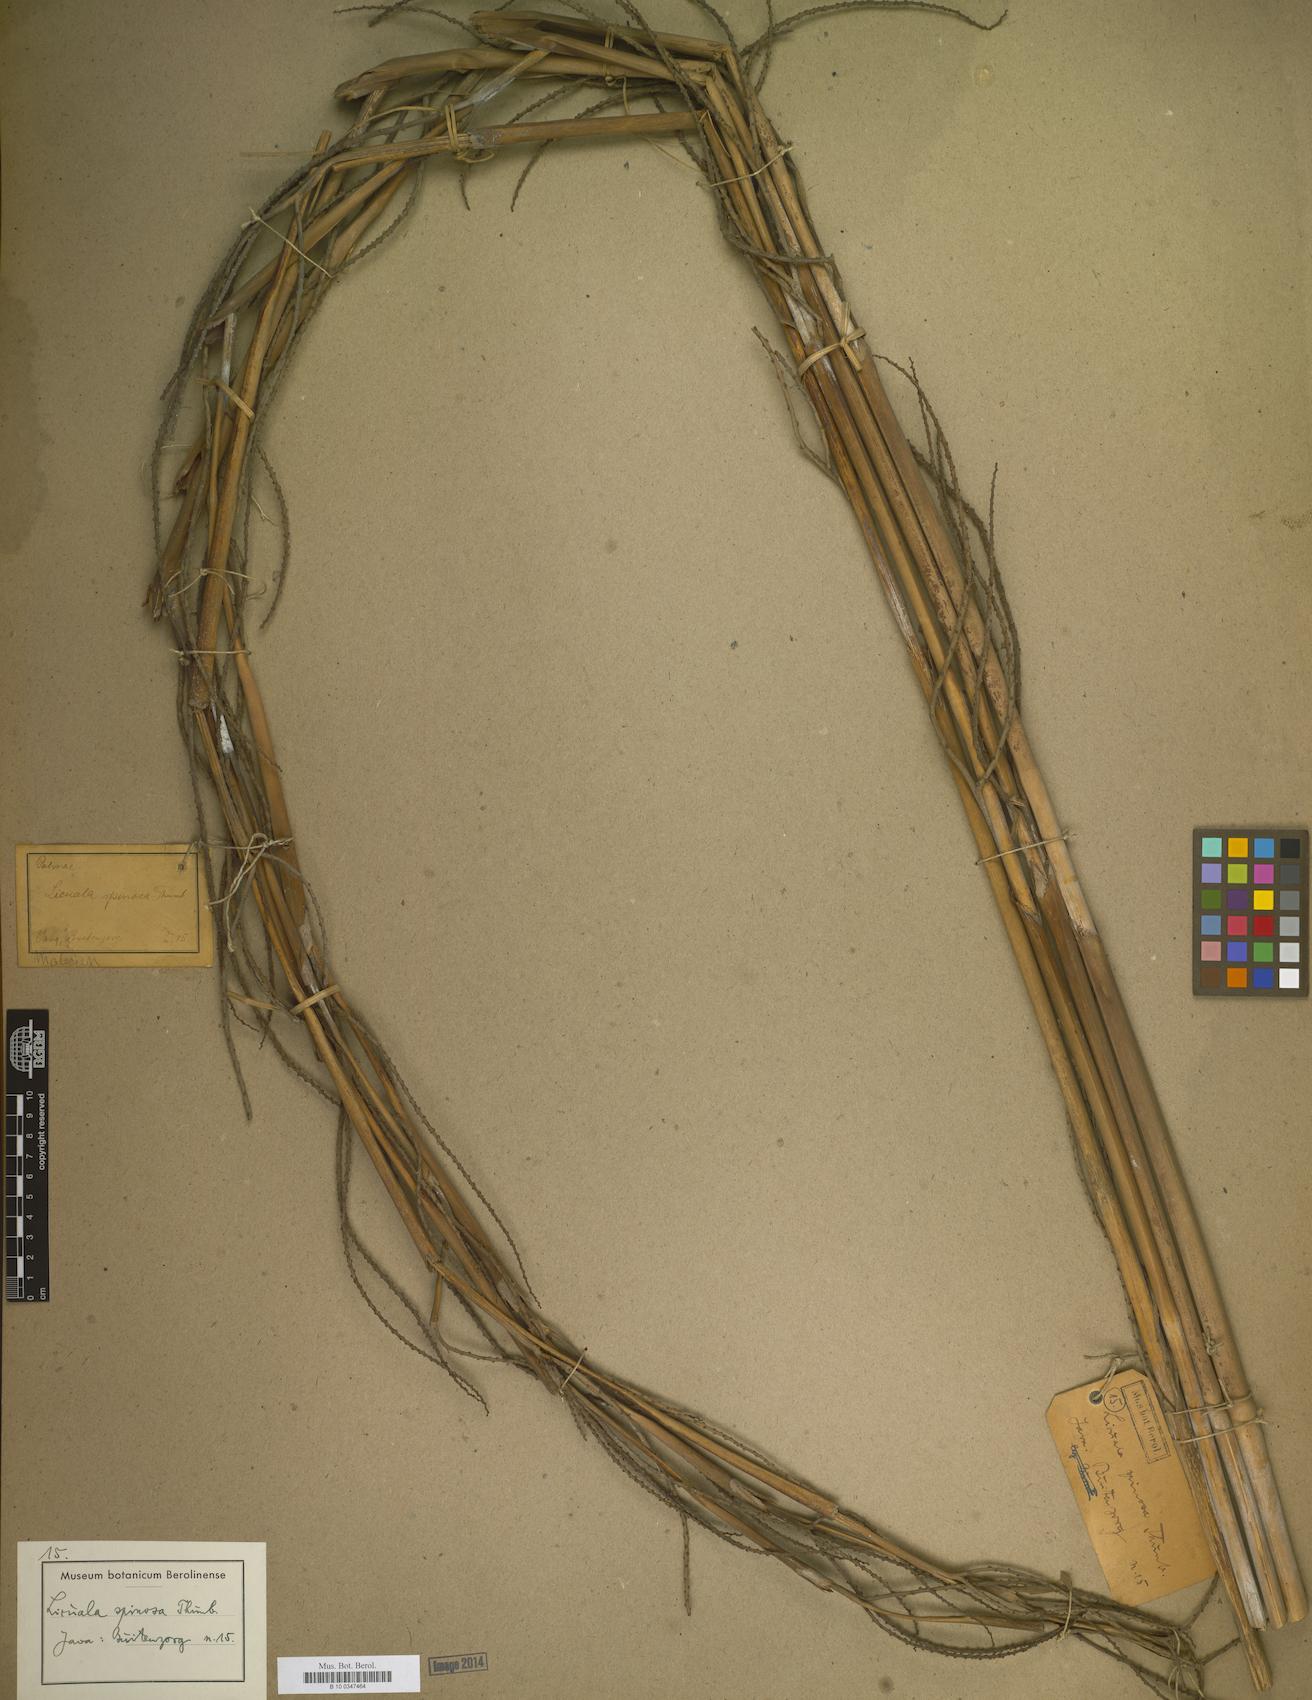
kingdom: Plantae
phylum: Tracheophyta
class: Liliopsida
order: Arecales
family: Arecaceae
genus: Licuala
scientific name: Licuala spinosa
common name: Mangrove fan palm
